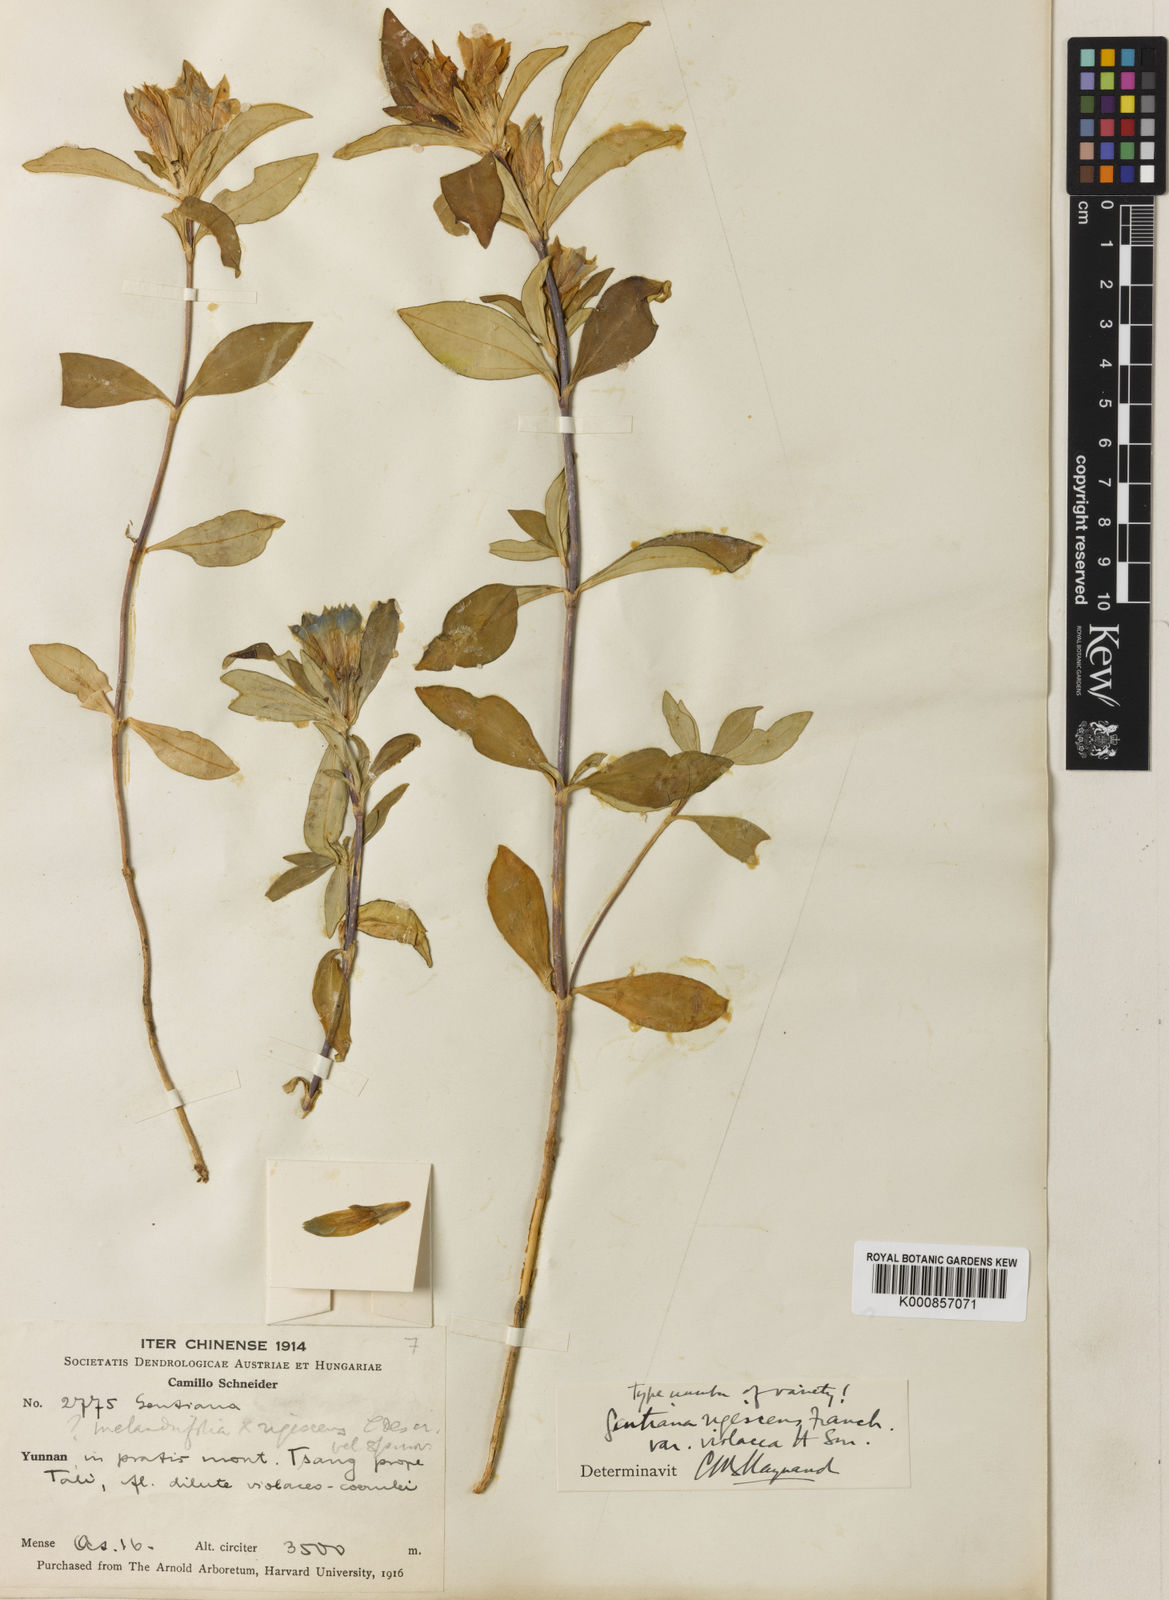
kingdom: Plantae
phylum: Tracheophyta
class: Magnoliopsida
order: Gentianales
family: Gentianaceae
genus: Gentiana
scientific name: Gentiana crassa
